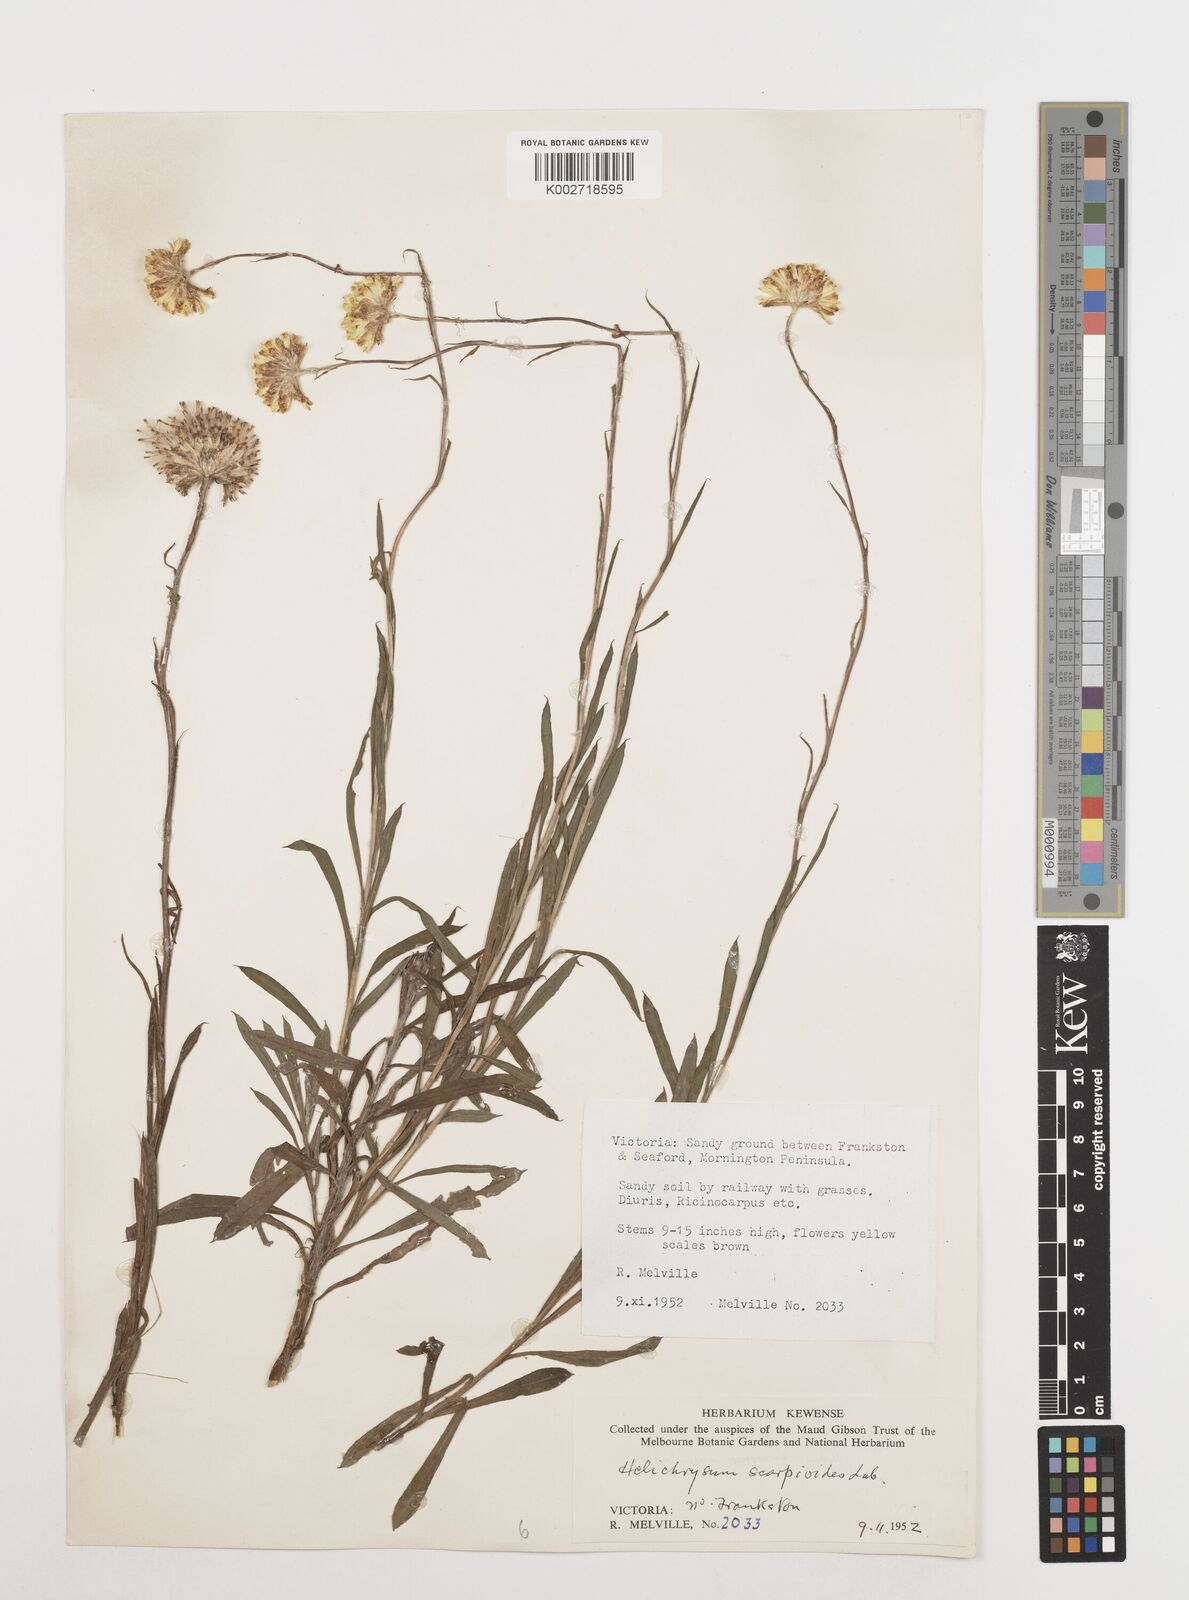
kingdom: Plantae
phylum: Tracheophyta
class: Magnoliopsida
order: Asterales
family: Asteraceae
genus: Coronidium
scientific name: Coronidium scorpioides
